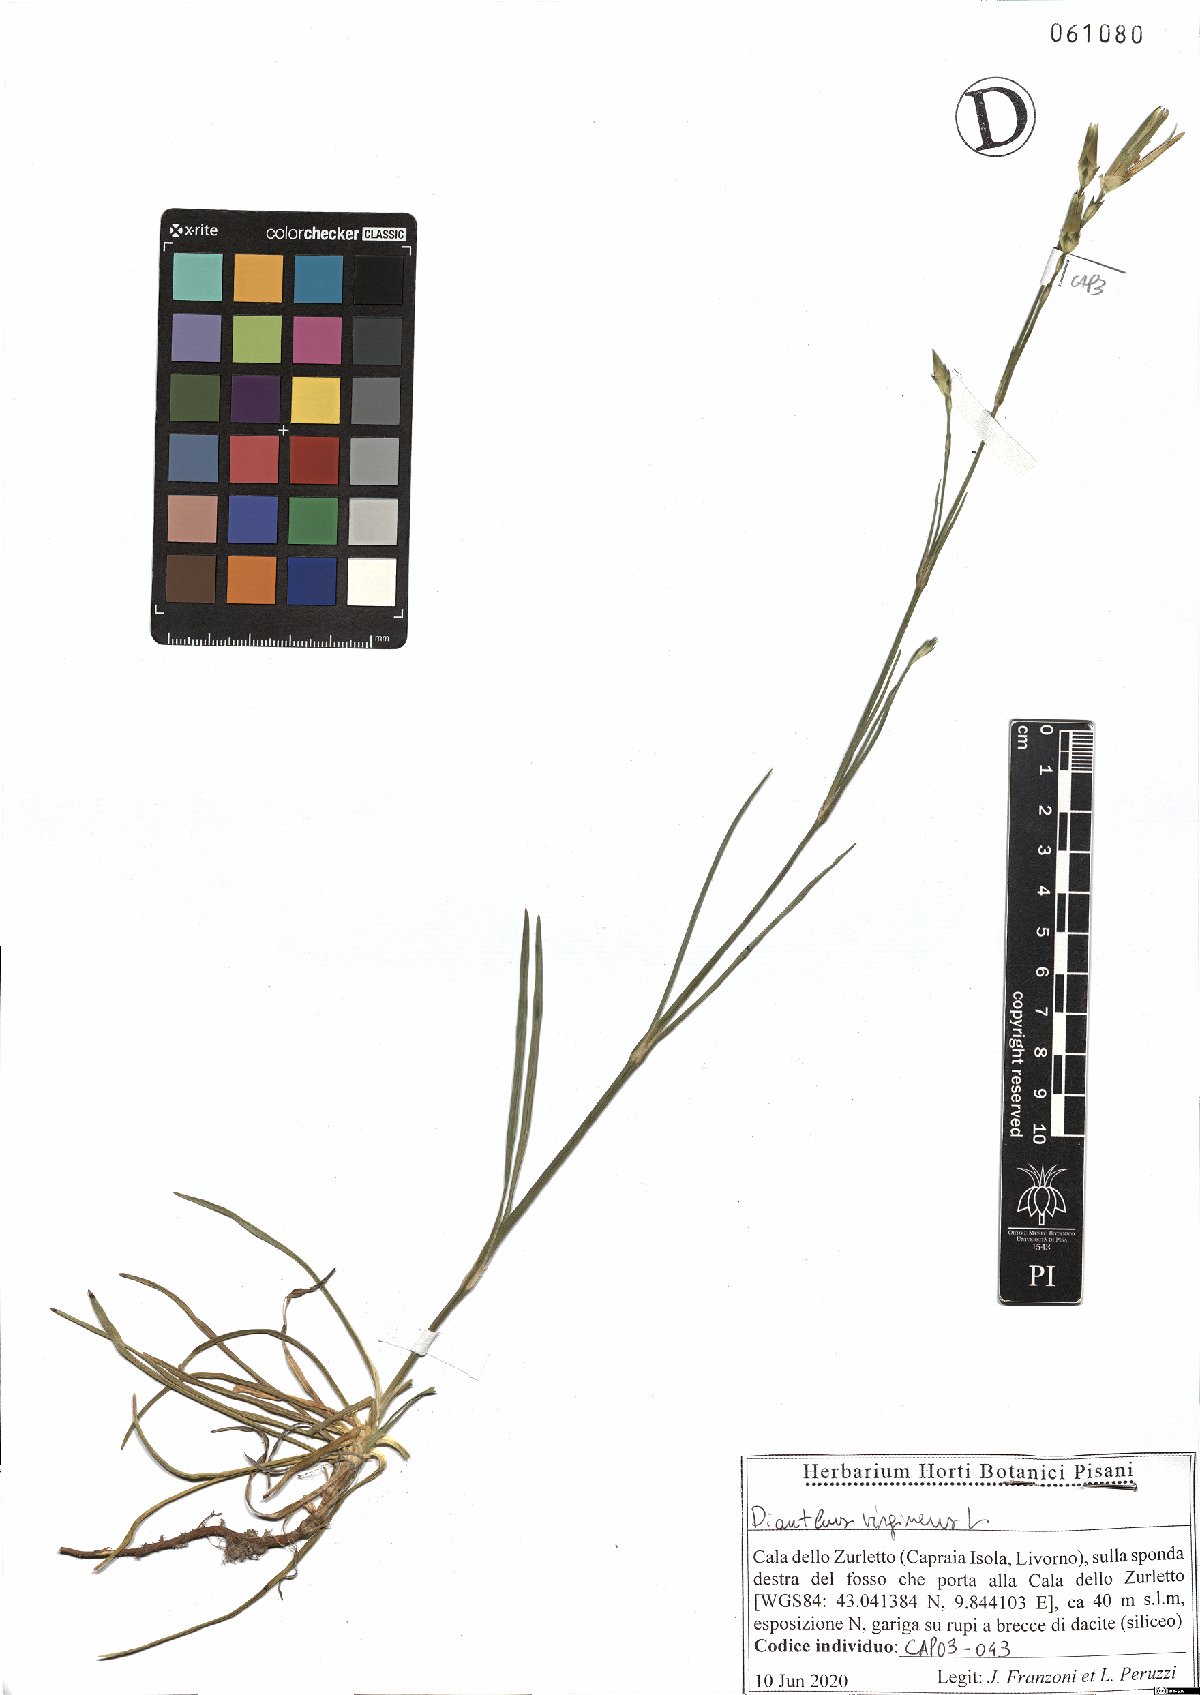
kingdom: Plantae
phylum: Tracheophyta
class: Magnoliopsida
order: Caryophyllales
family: Caryophyllaceae
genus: Dianthus
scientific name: Dianthus virgineus
